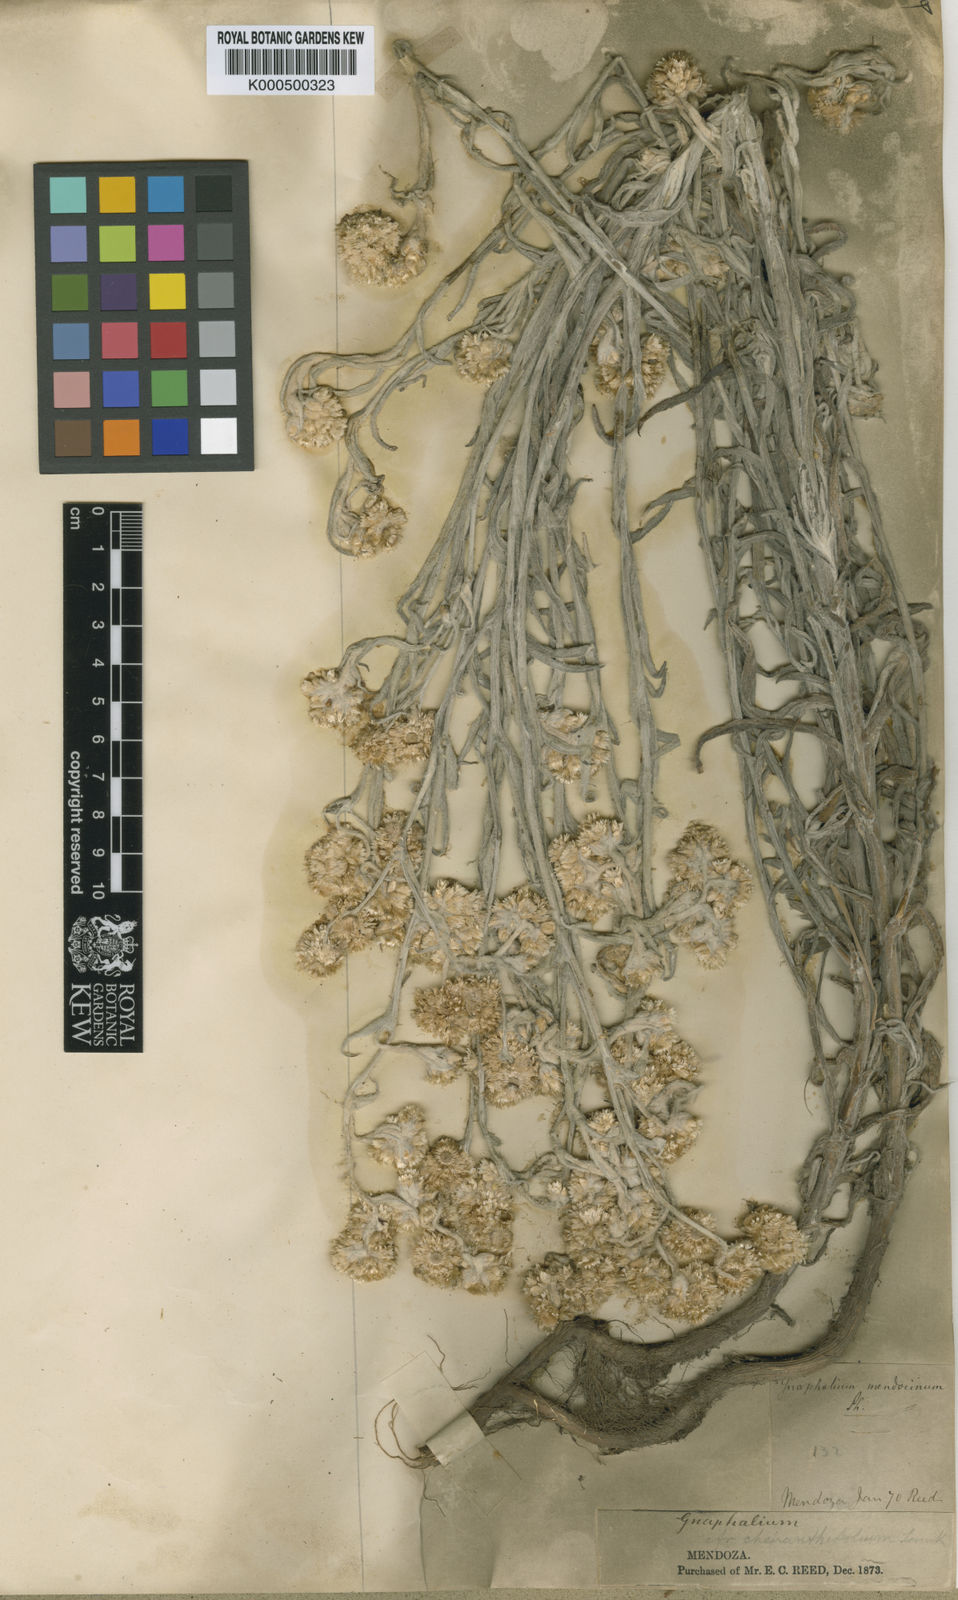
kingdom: Plantae
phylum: Tracheophyta
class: Magnoliopsida
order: Asterales
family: Asteraceae
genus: Pseudognaphalium
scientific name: Pseudognaphalium cheiranthifolium
